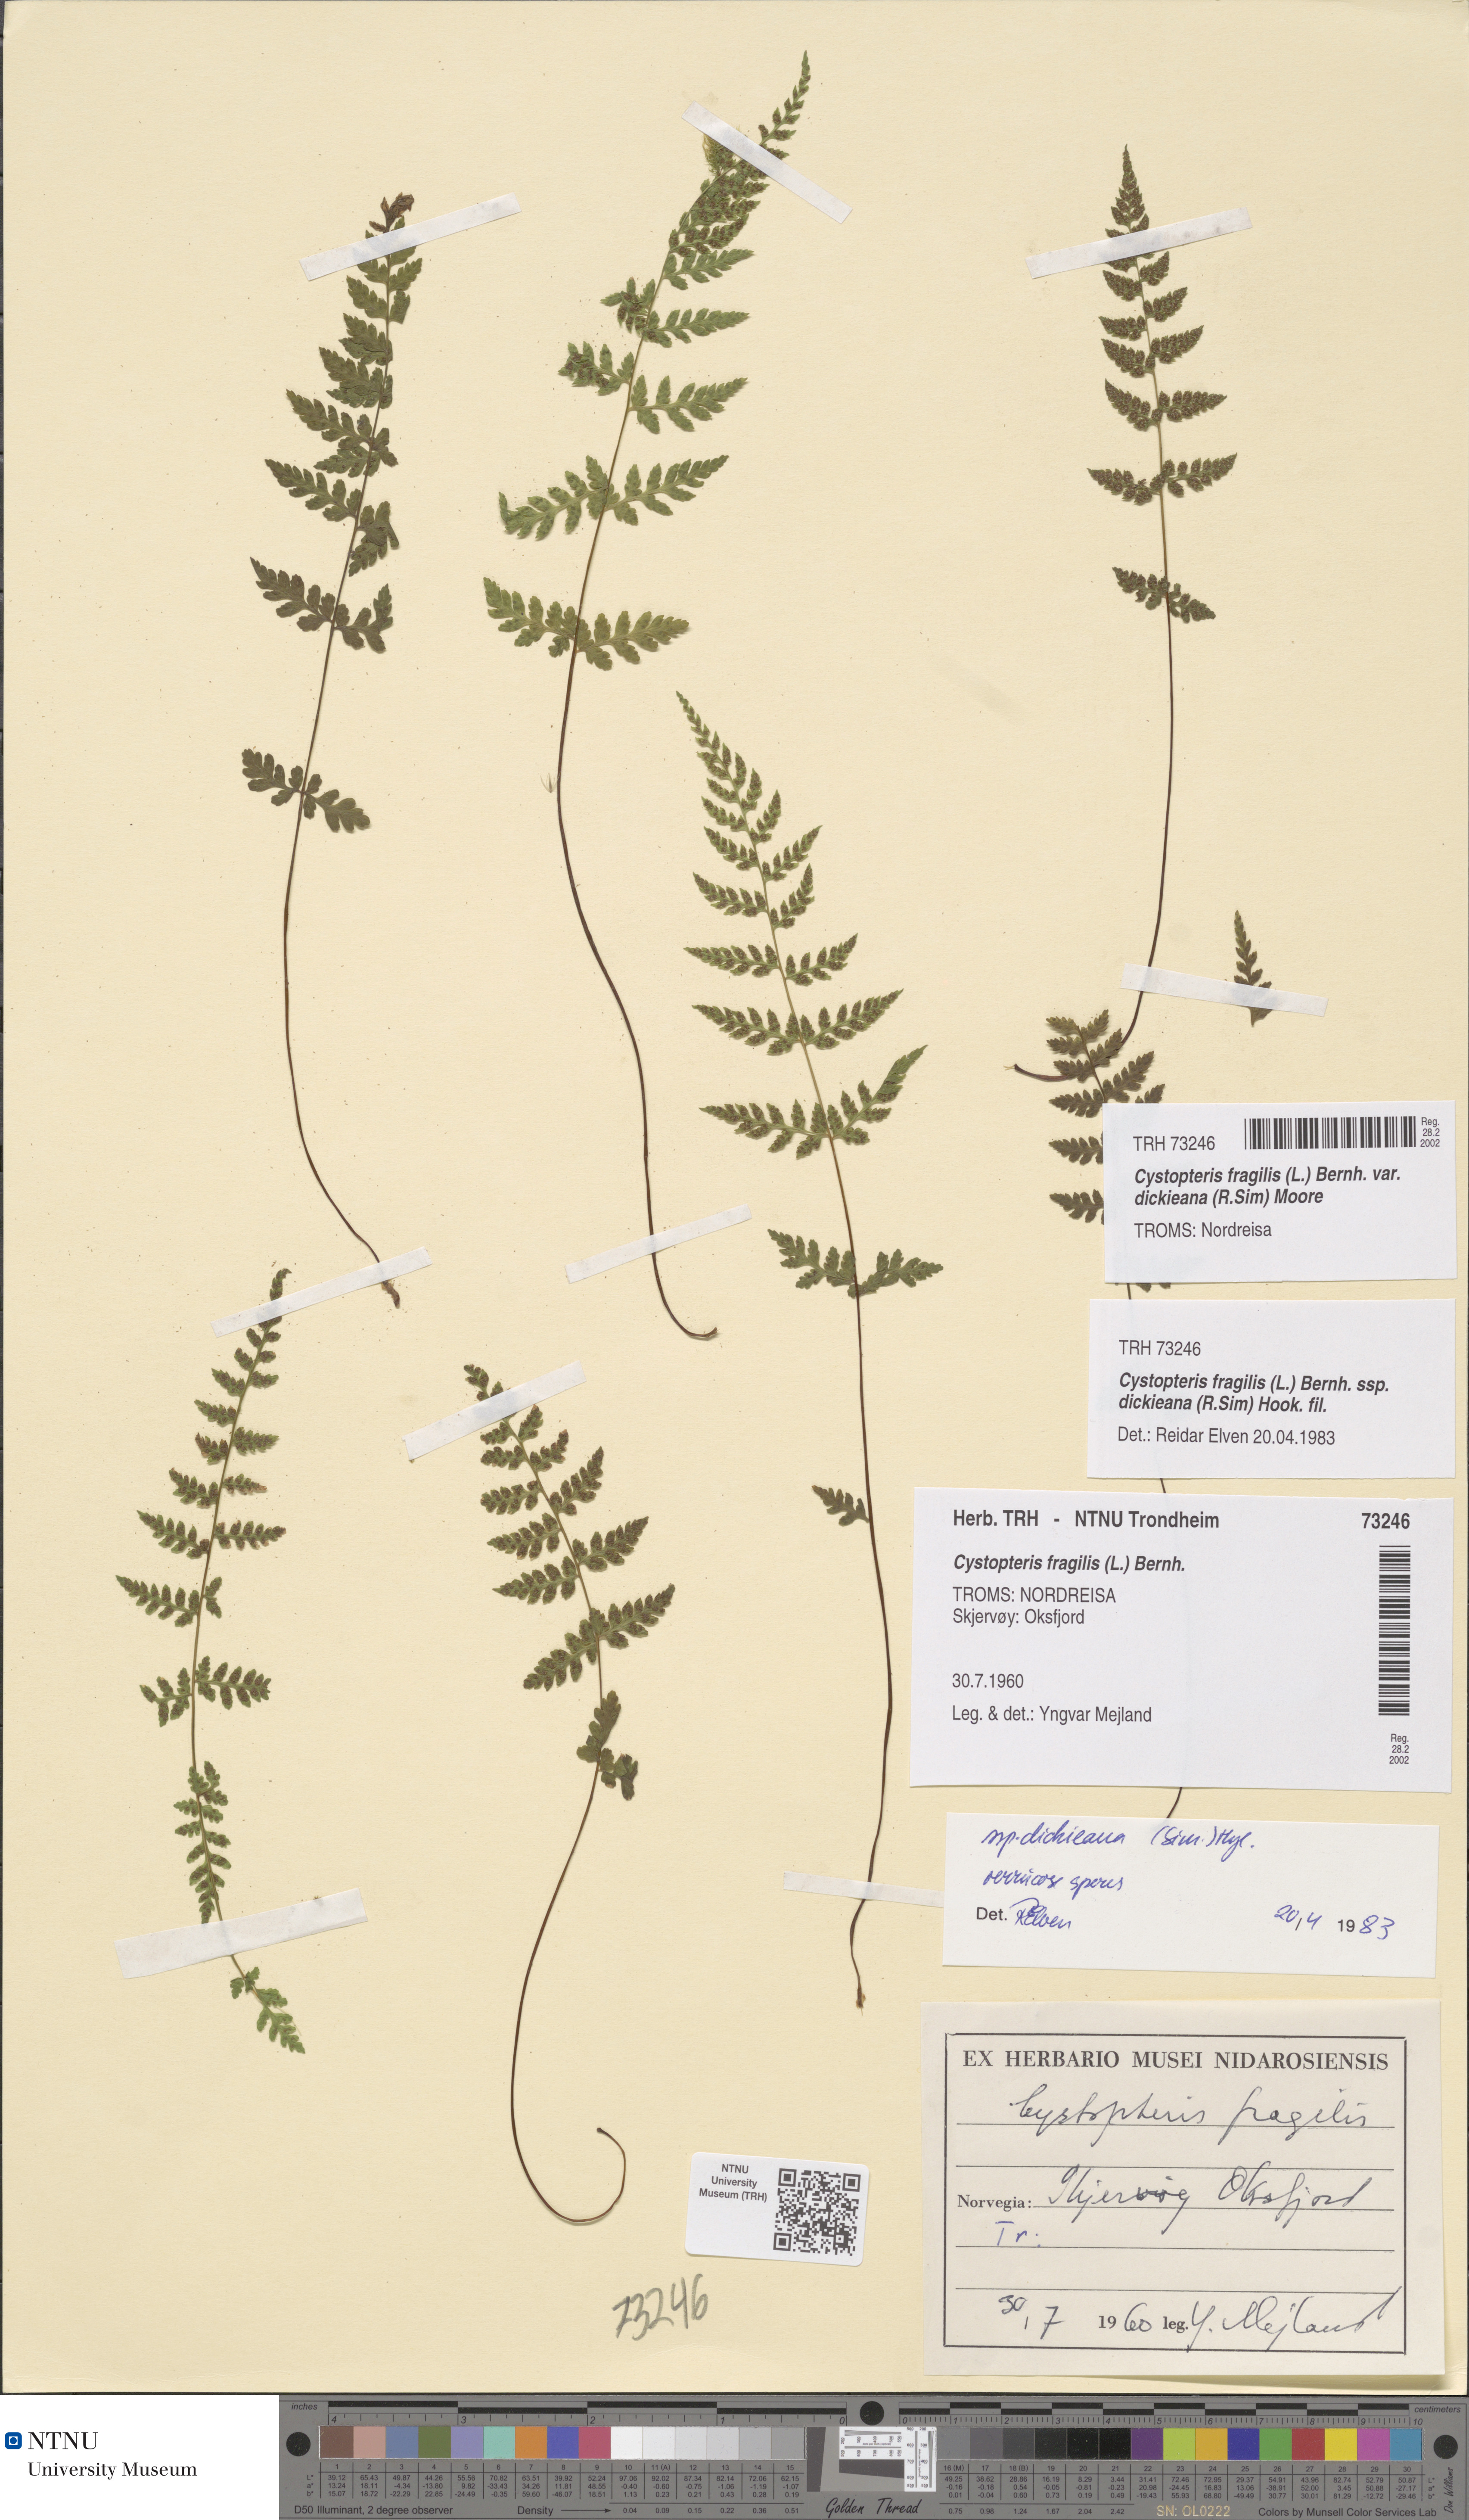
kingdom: Plantae
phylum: Tracheophyta
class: Polypodiopsida
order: Polypodiales
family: Cystopteridaceae
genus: Cystopteris
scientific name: Cystopteris dickieana
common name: Dickie's bladder-fern
